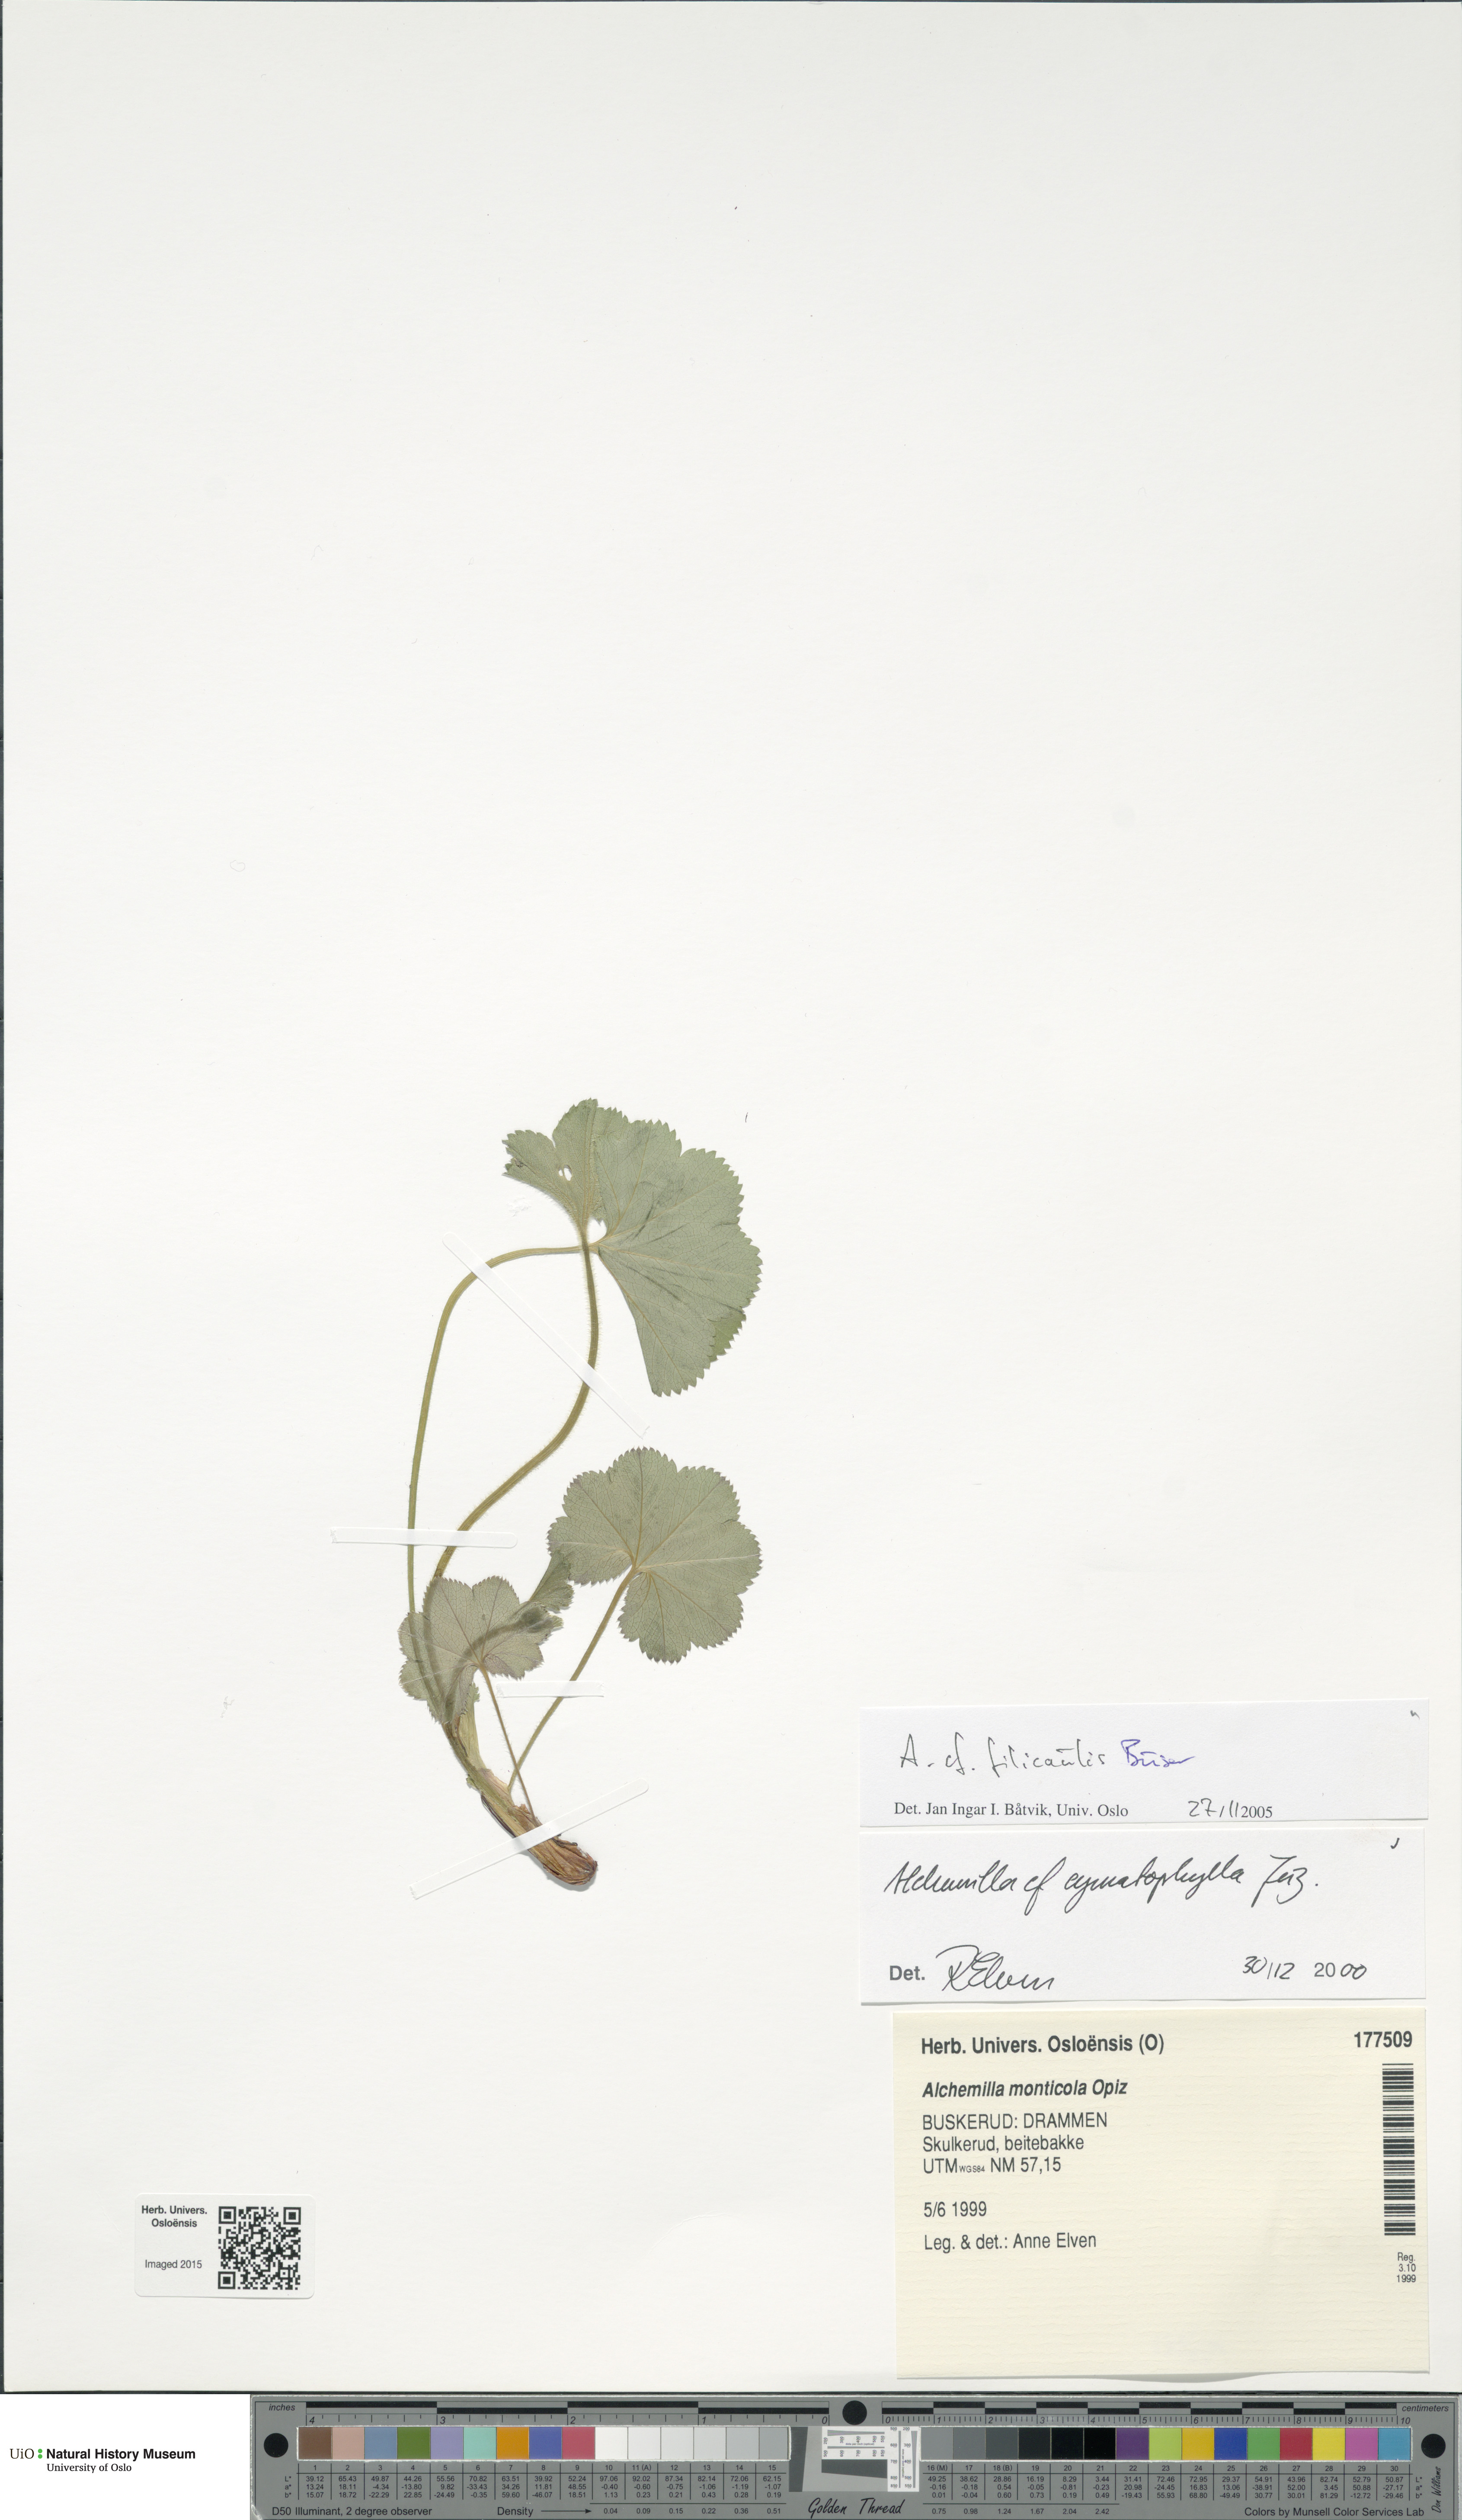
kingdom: Plantae
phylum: Tracheophyta
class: Magnoliopsida
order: Rosales
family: Rosaceae
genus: Alchemilla
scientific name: Alchemilla filicaulis
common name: Hairy lady's-mantle
